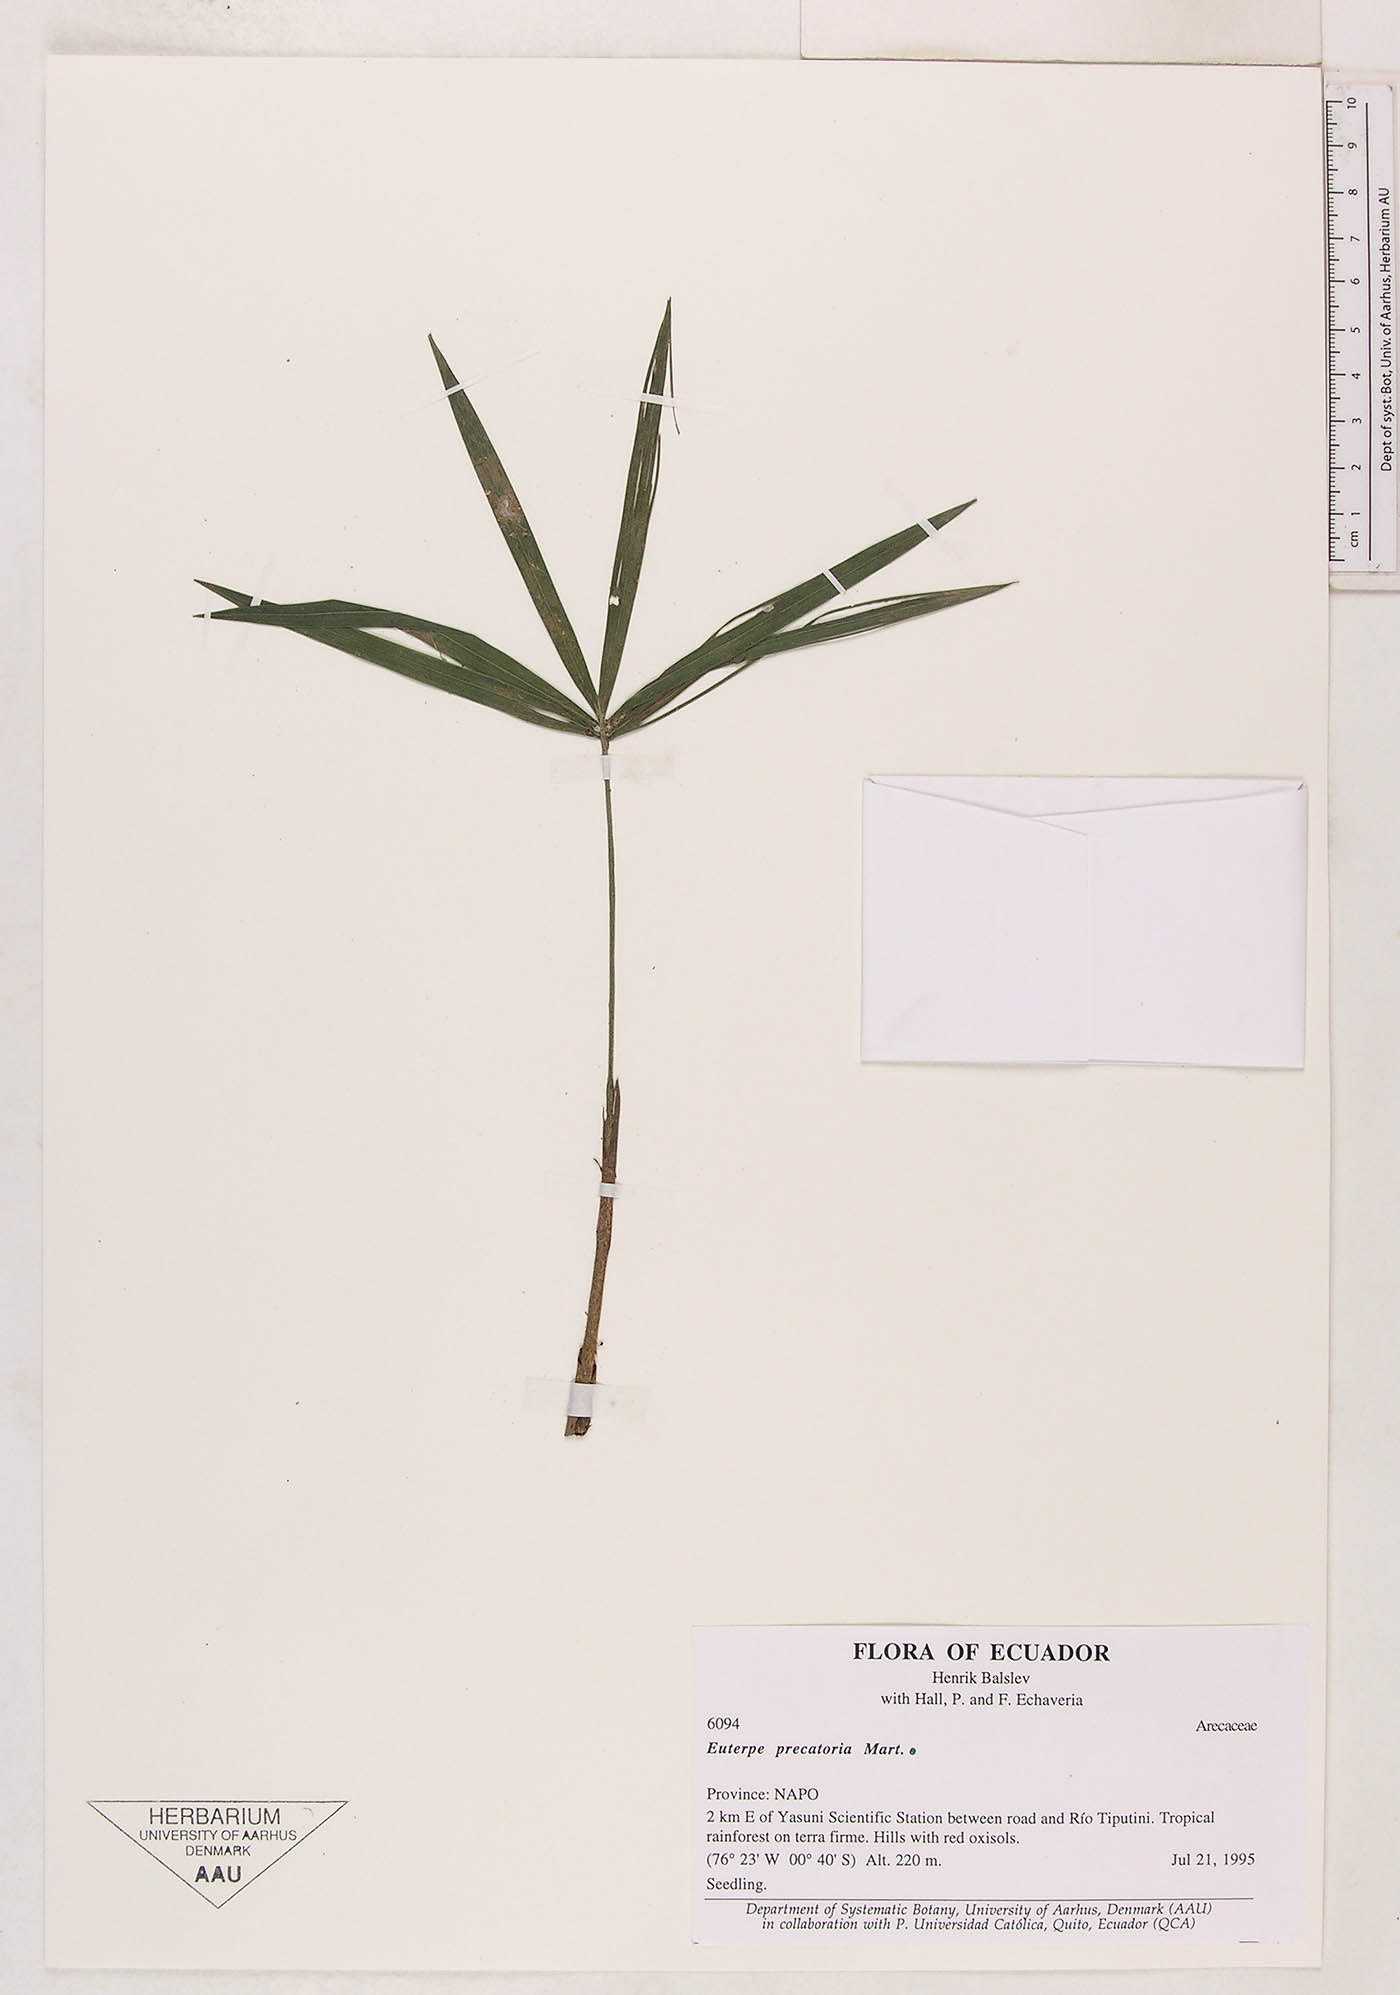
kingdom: Plantae
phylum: Tracheophyta
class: Liliopsida
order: Arecales
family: Arecaceae
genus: Euterpe
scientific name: Euterpe precatoria
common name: Mountain-cabbage
